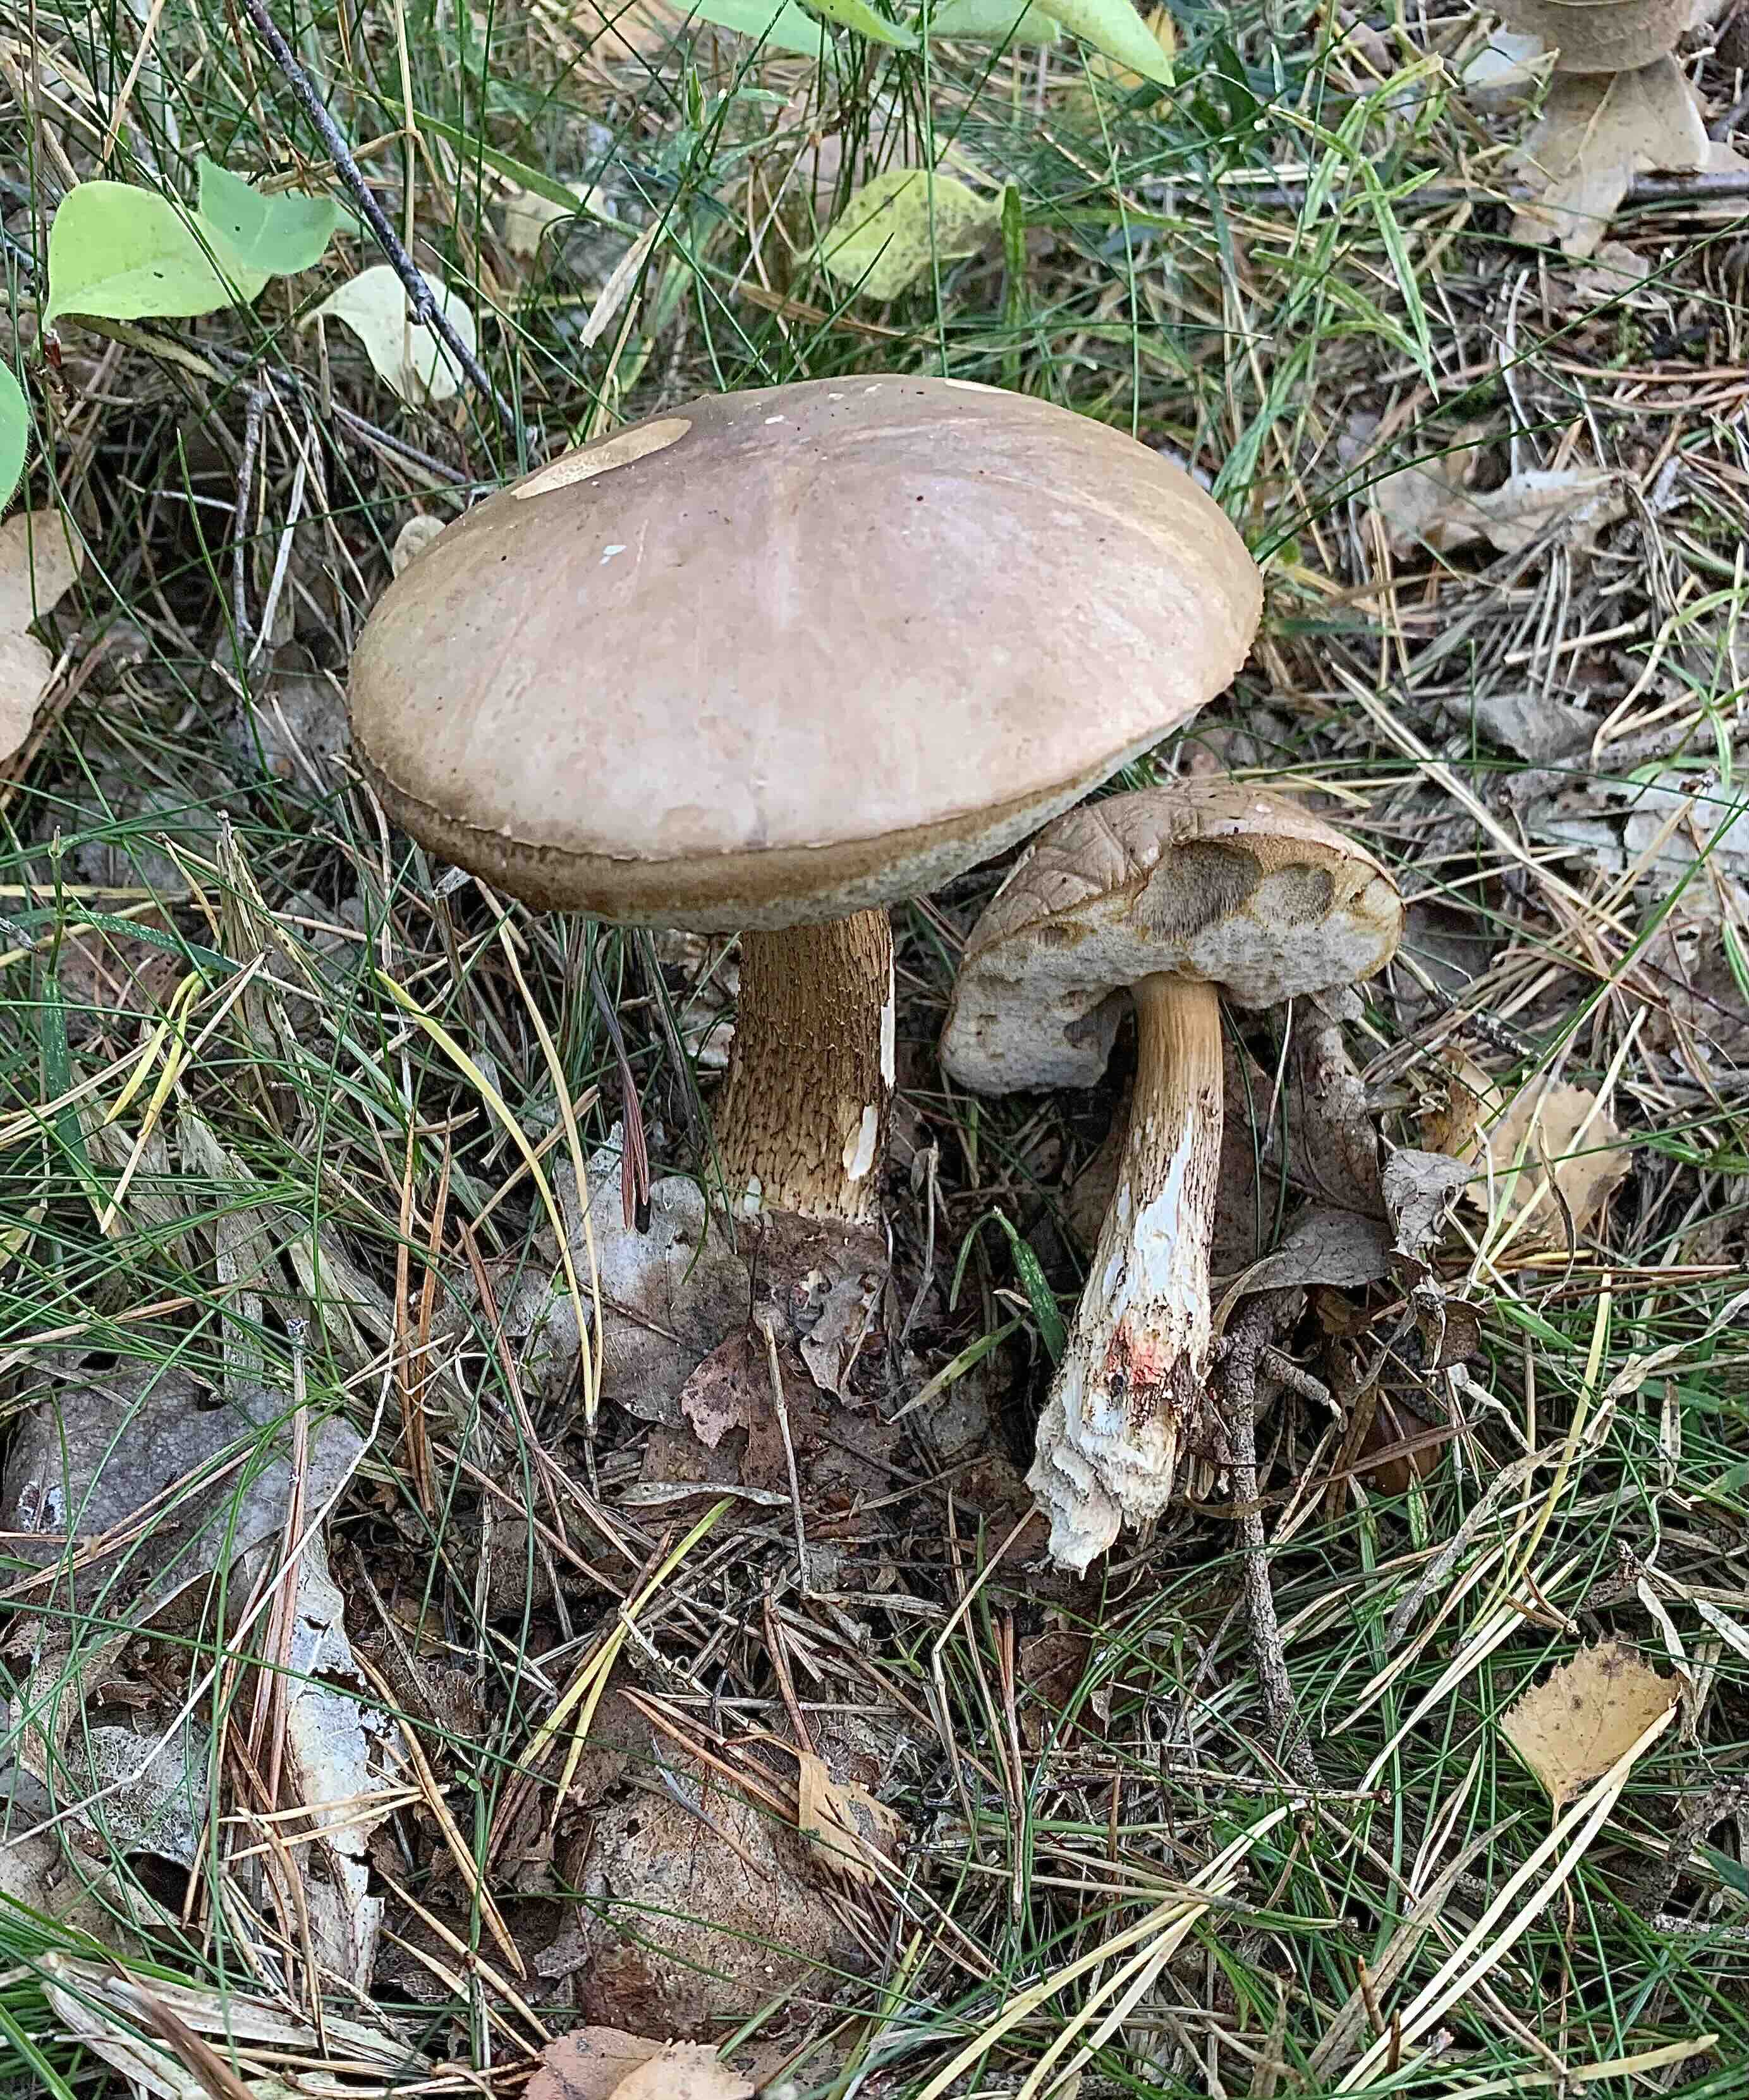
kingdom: Fungi
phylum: Basidiomycota
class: Agaricomycetes
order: Boletales
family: Boletaceae
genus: Leccinum
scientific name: Leccinum scabrum
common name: brun skælrørhat
